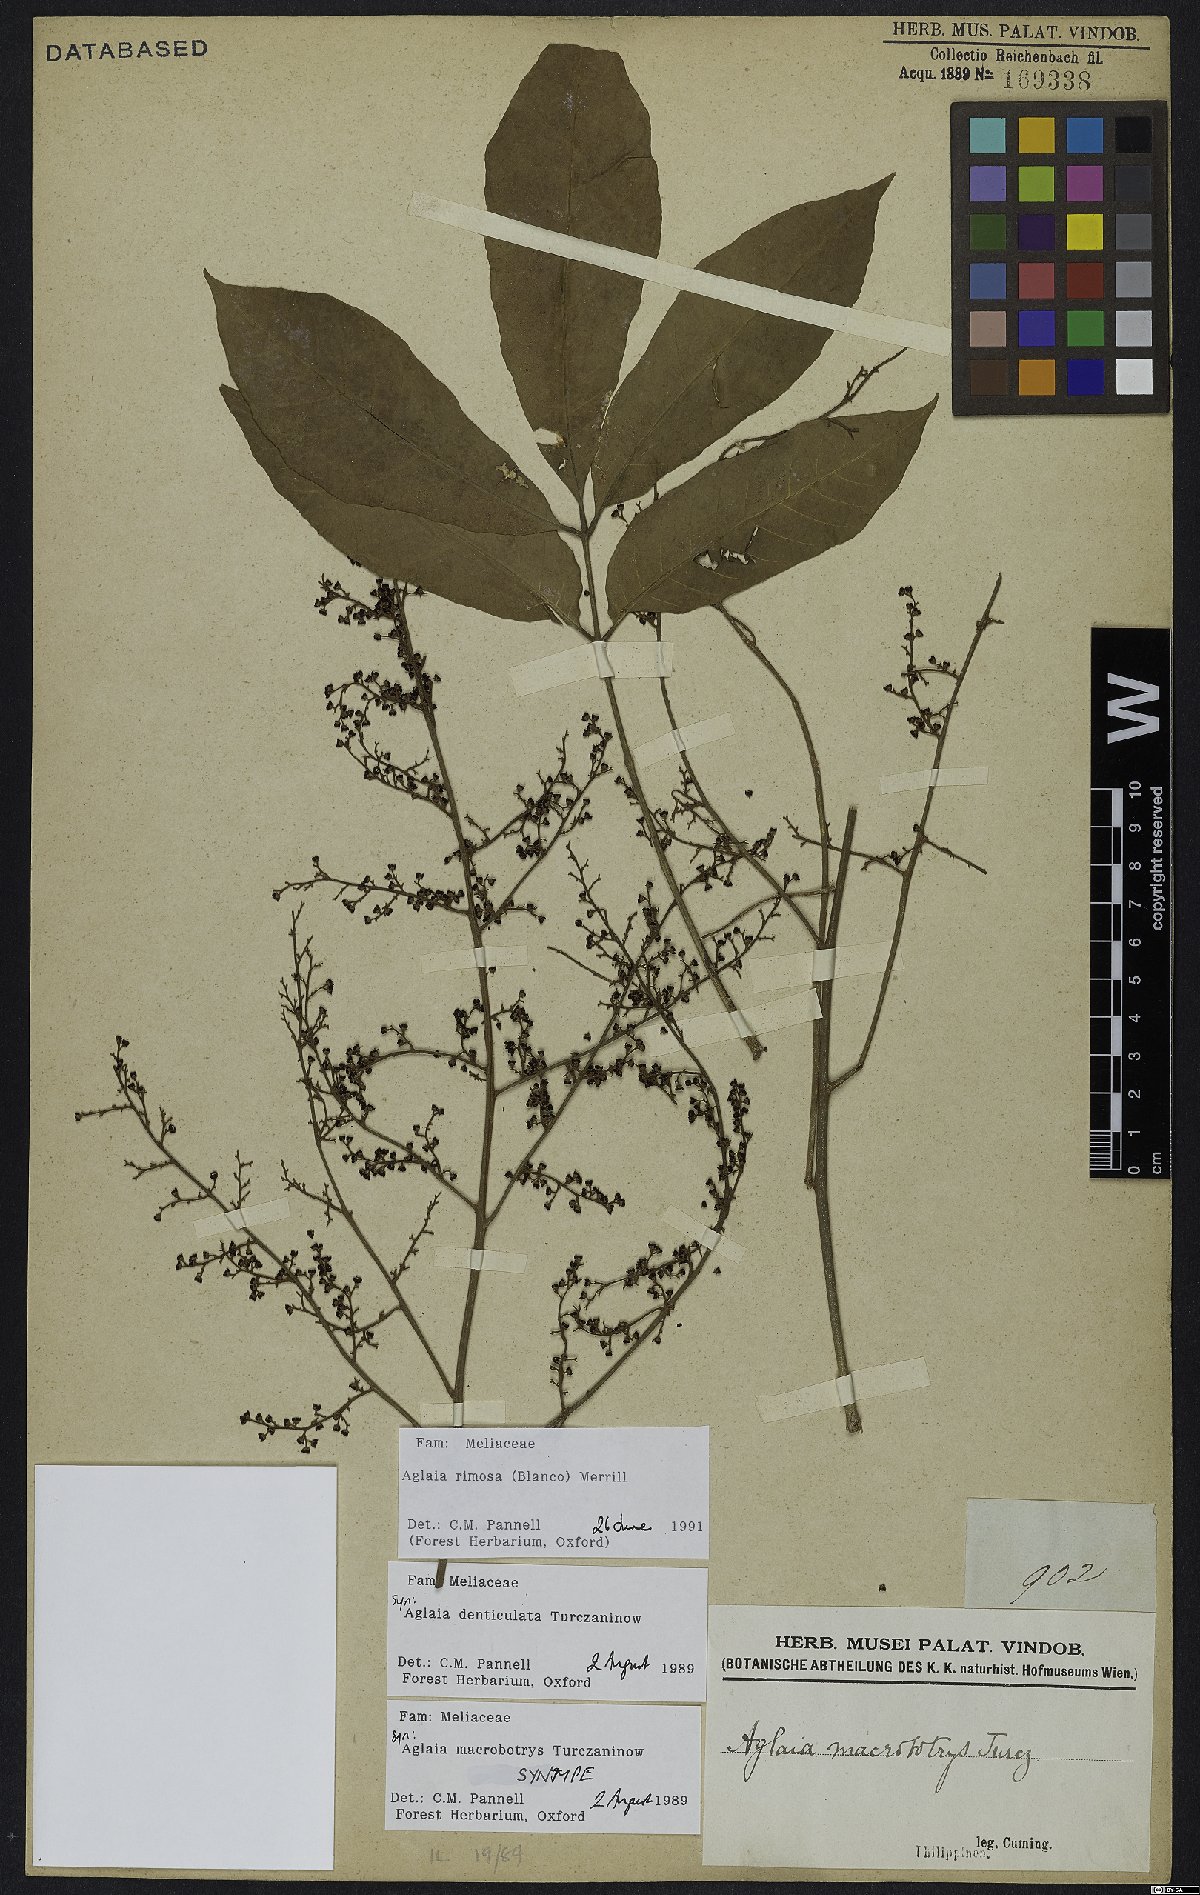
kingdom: Plantae
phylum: Tracheophyta
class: Magnoliopsida
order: Sapindales
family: Meliaceae
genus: Aglaia
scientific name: Aglaia rimosa
